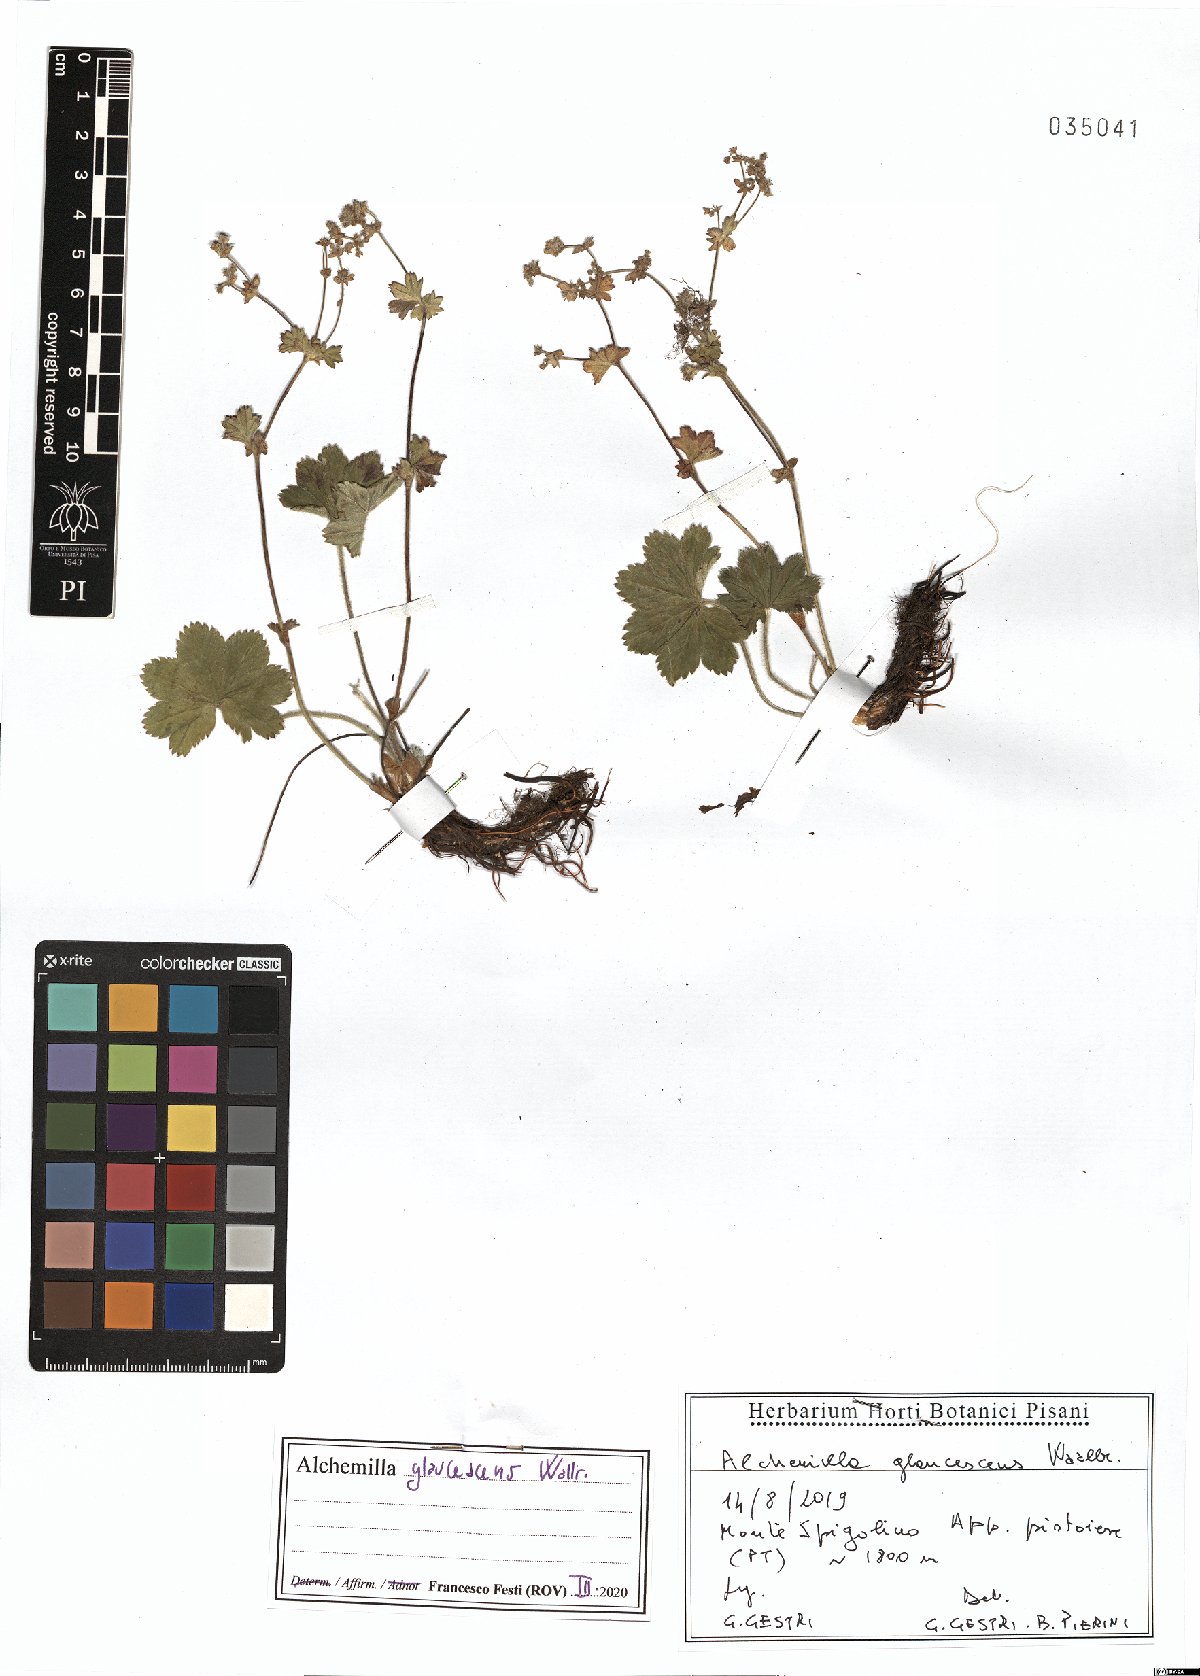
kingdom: Plantae
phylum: Tracheophyta
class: Magnoliopsida
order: Rosales
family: Rosaceae
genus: Alchemilla
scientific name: Alchemilla glaucescens
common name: Silky lady's mantle
